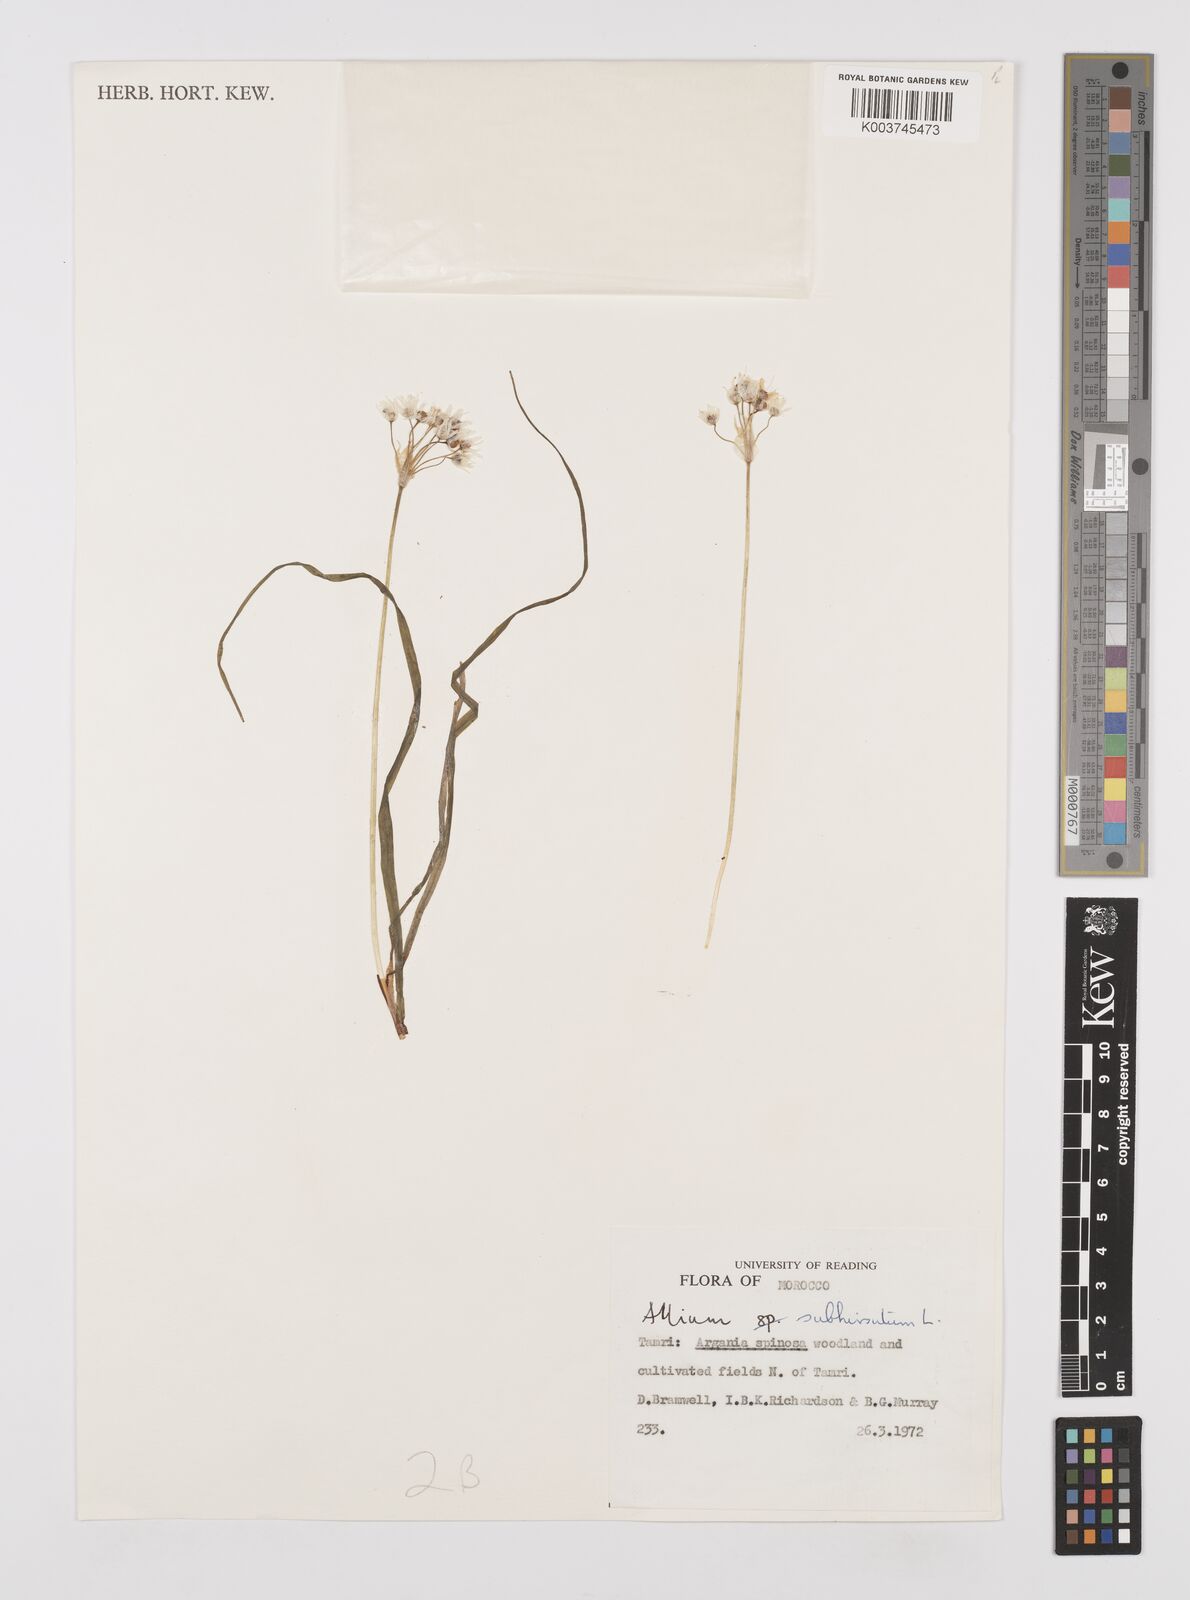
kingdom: Plantae
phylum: Tracheophyta
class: Liliopsida
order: Asparagales
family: Amaryllidaceae
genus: Allium
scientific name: Allium subhirsutum
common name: Hairy garlic
